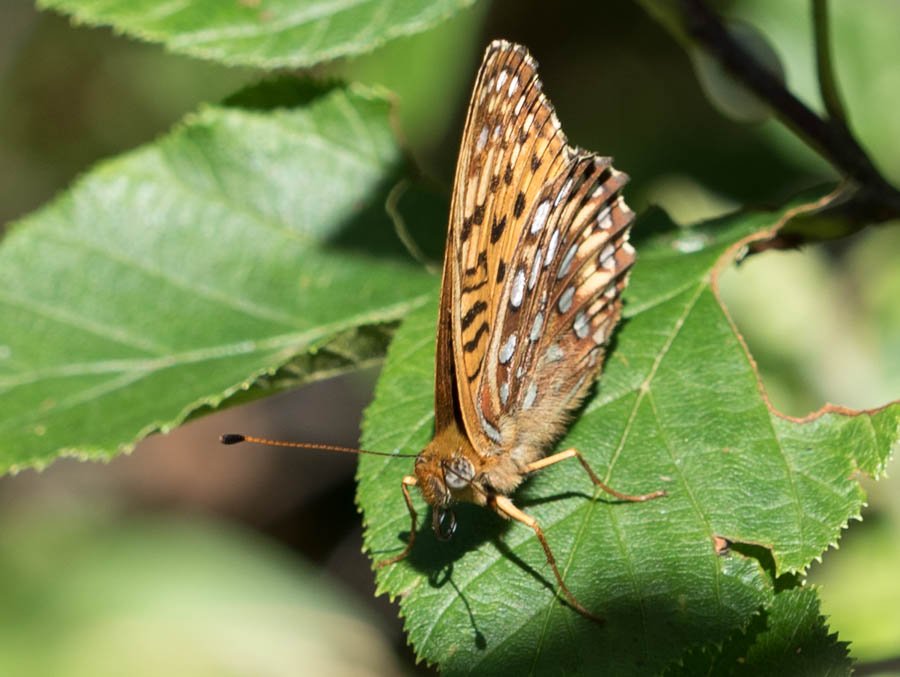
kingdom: Animalia
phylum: Arthropoda
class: Insecta
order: Lepidoptera
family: Nymphalidae
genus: Speyeria
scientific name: Speyeria atlantis
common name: Atlantis Fritillary
